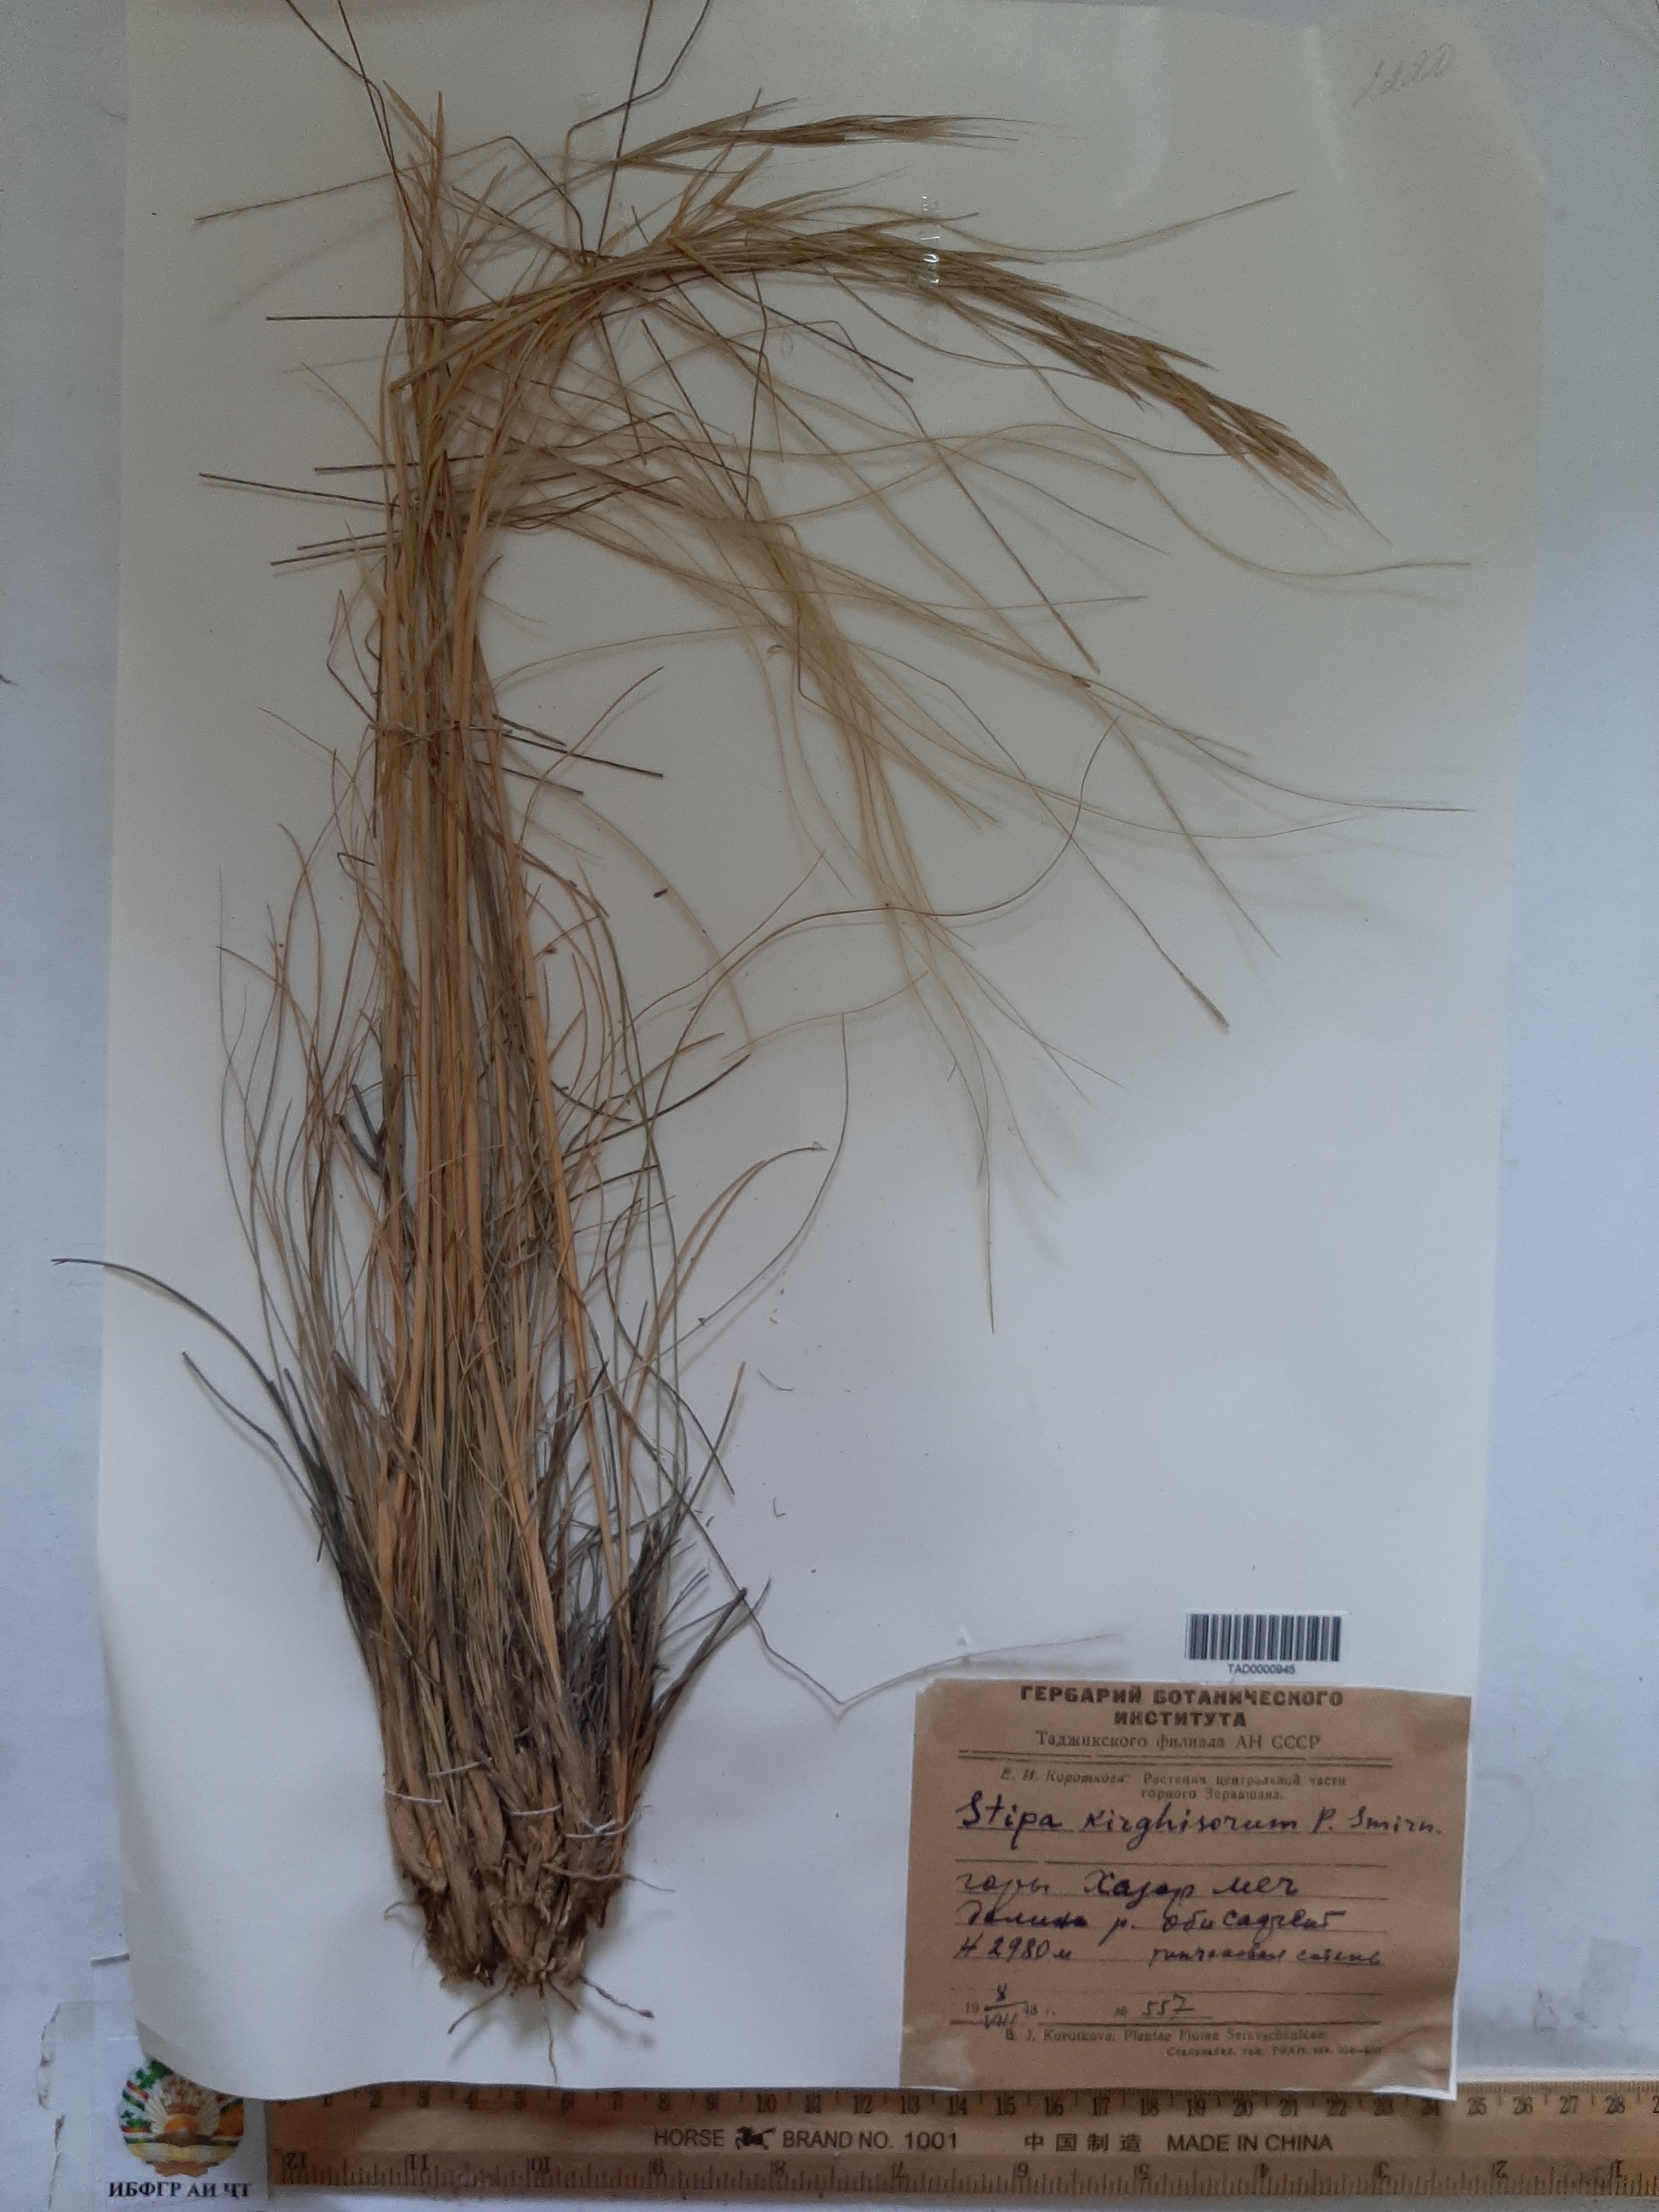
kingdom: Plantae
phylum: Tracheophyta
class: Liliopsida
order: Poales
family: Poaceae
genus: Stipa
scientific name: Stipa kirghisorum
